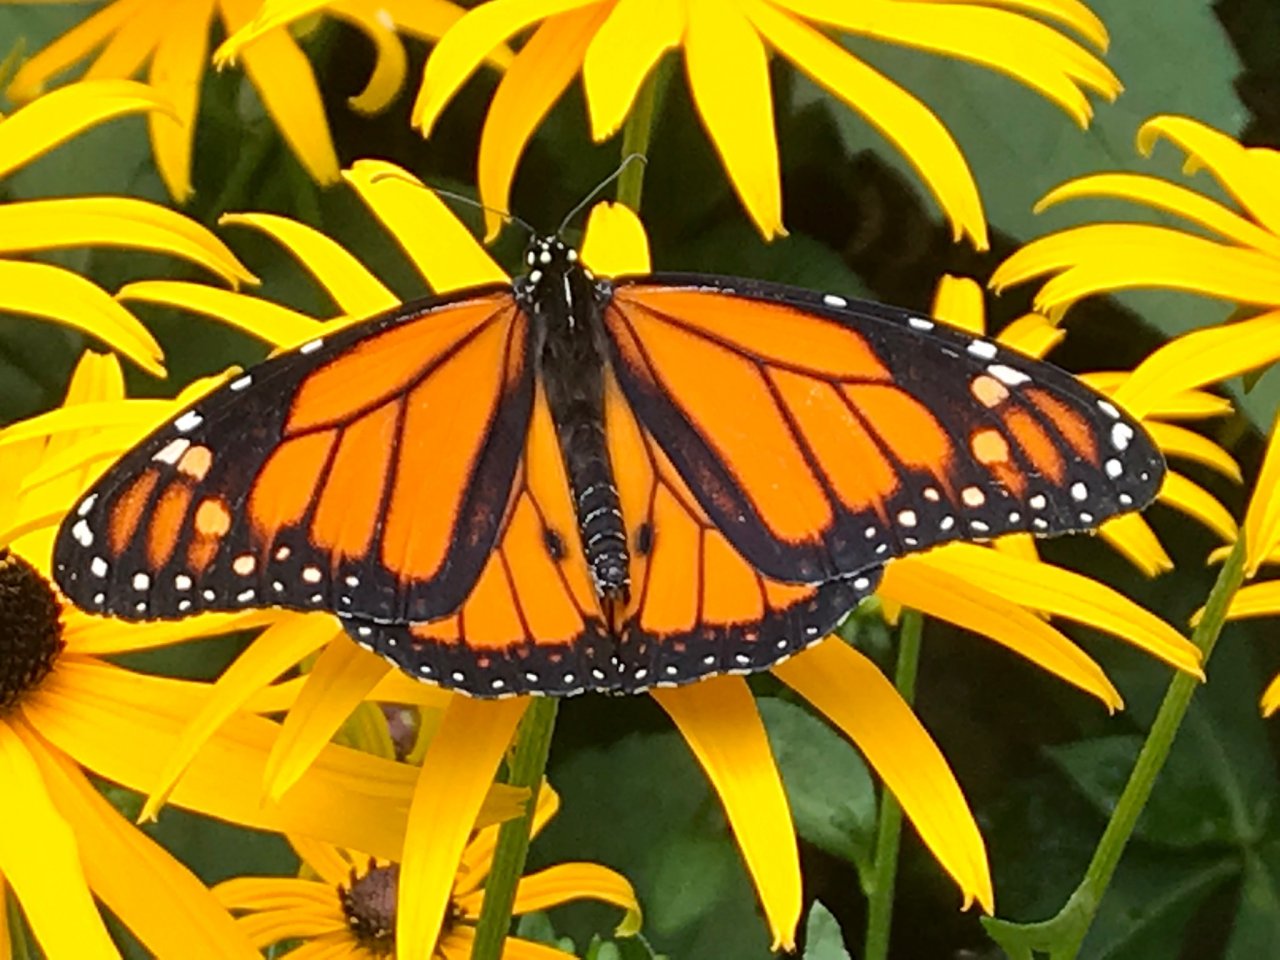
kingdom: Animalia
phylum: Arthropoda
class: Insecta
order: Lepidoptera
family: Nymphalidae
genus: Danaus
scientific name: Danaus plexippus
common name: Monarch
